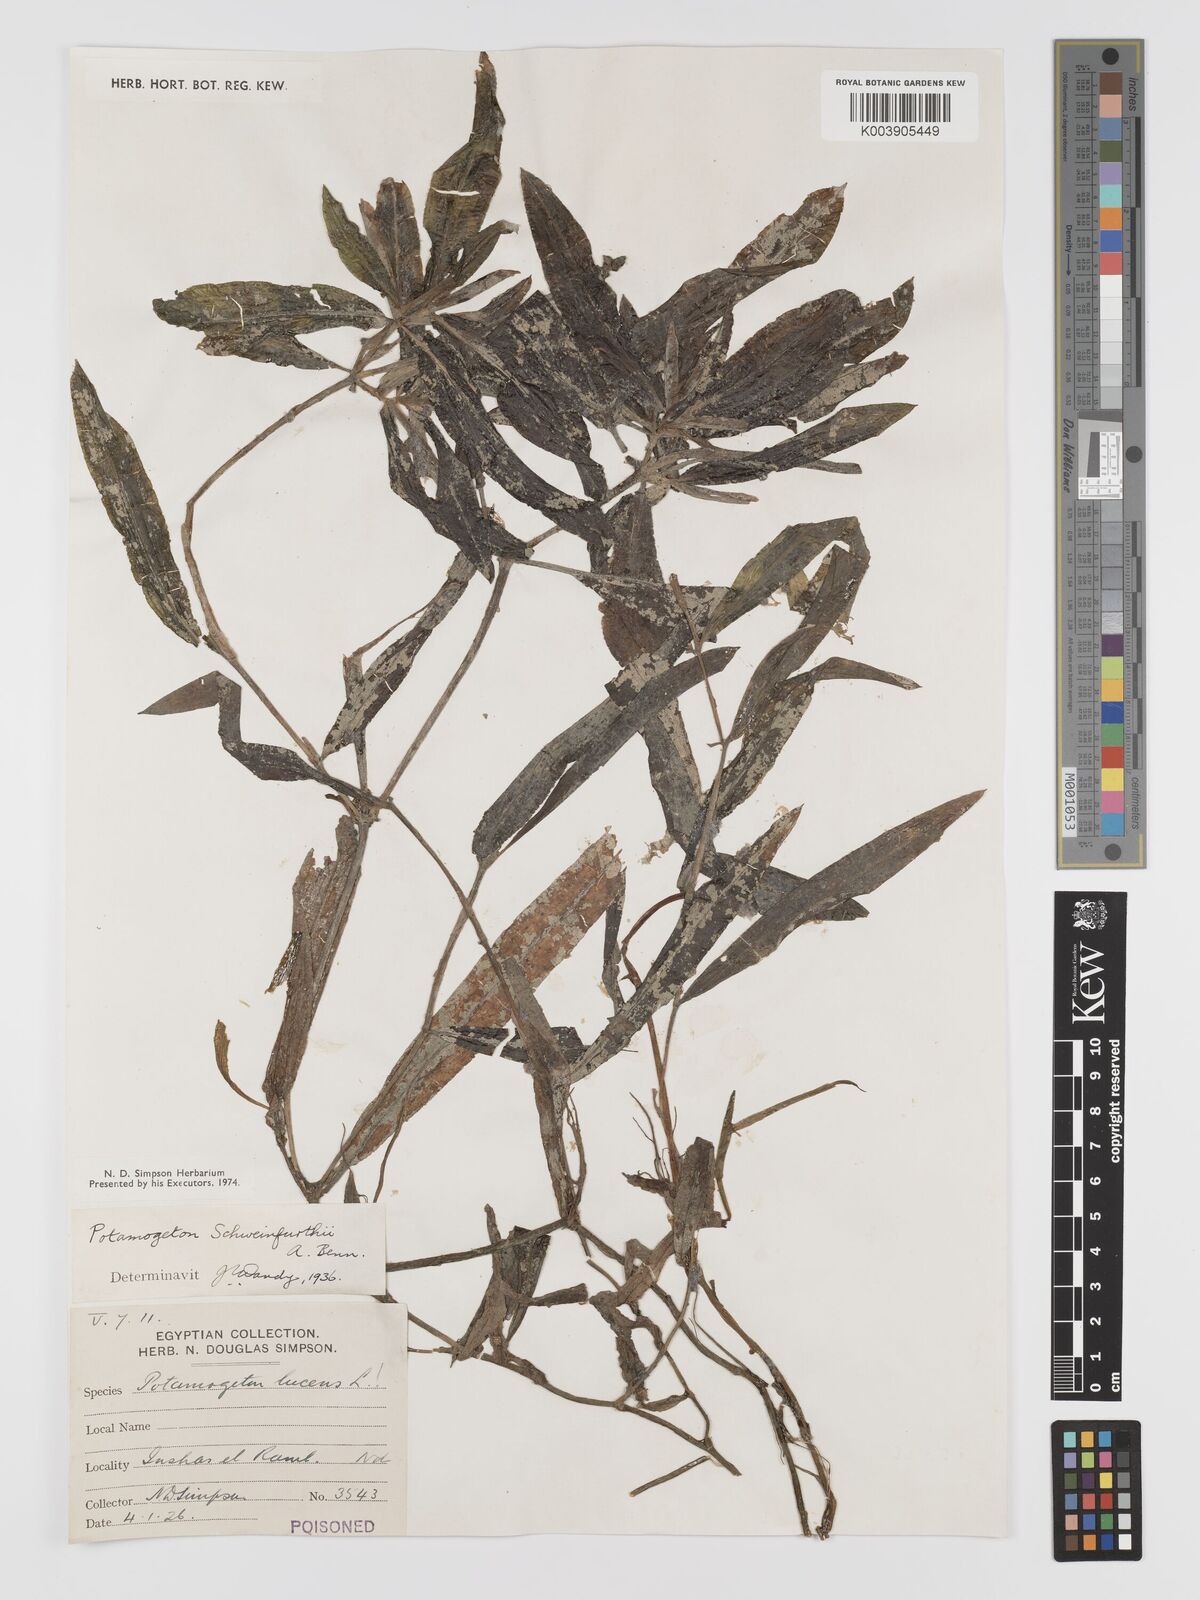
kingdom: Plantae
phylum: Tracheophyta
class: Liliopsida
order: Alismatales
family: Potamogetonaceae
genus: Potamogeton
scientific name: Potamogeton schweinfurthii
